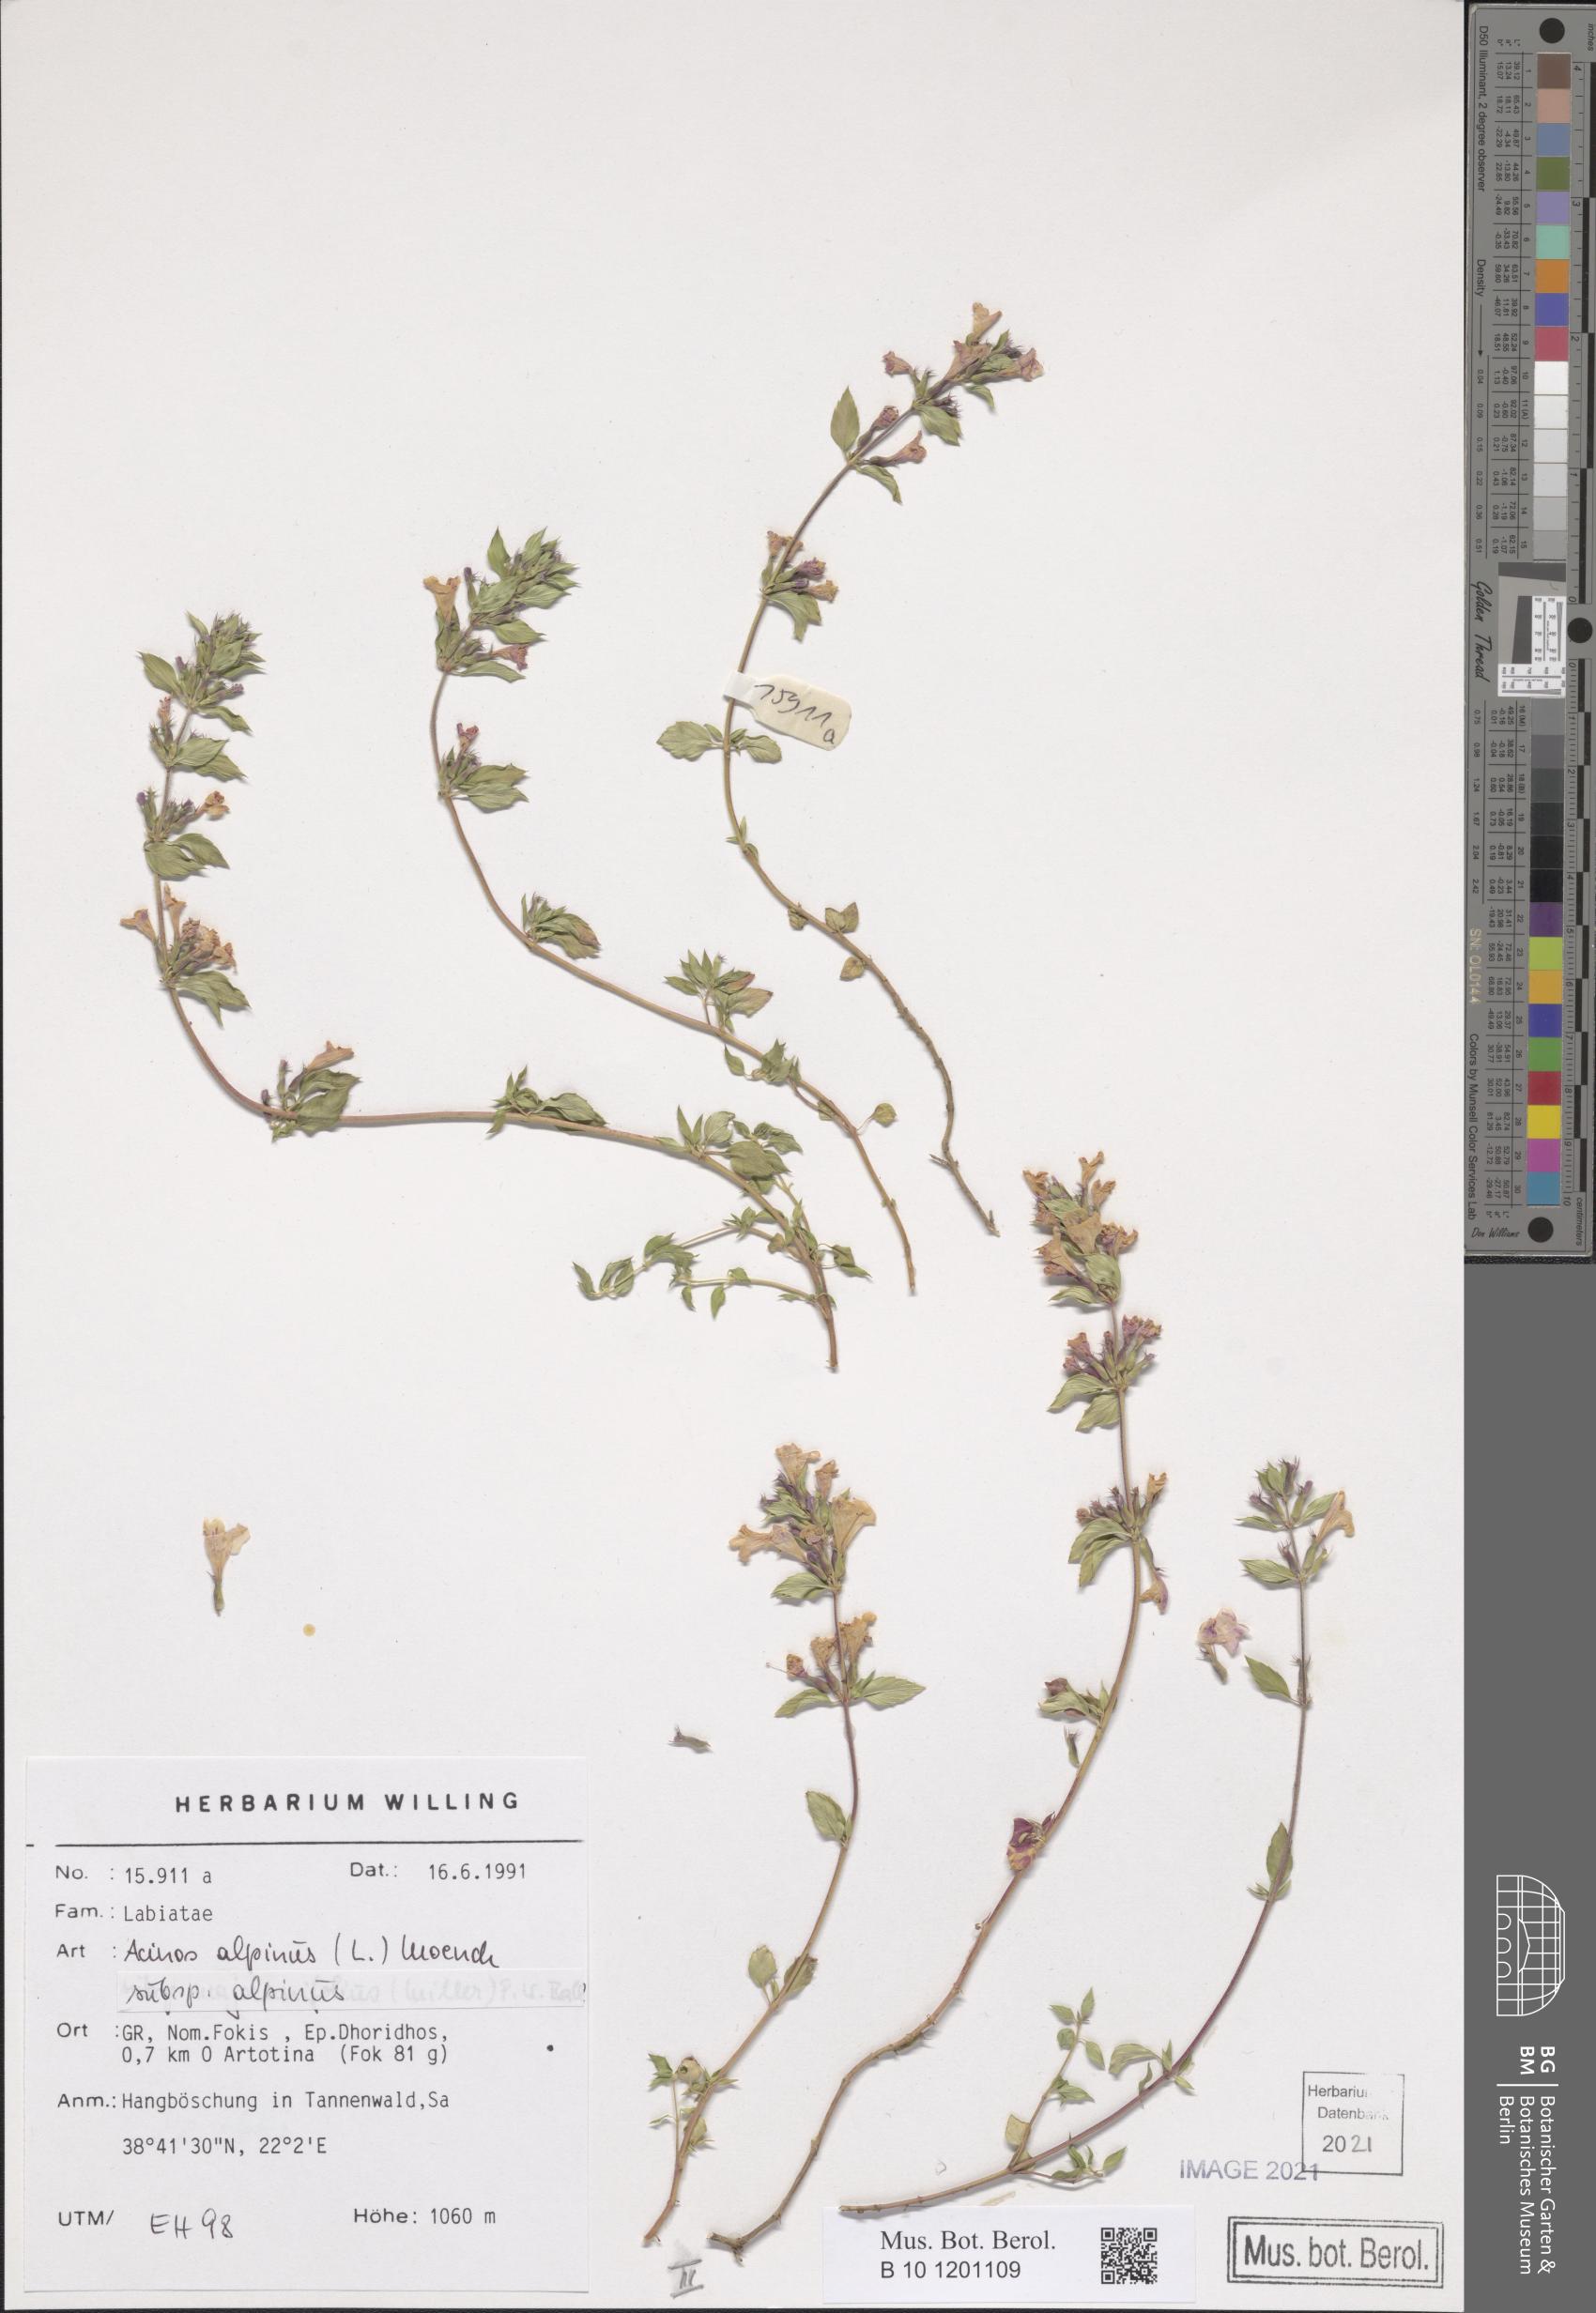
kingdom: Plantae
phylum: Tracheophyta
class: Magnoliopsida
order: Lamiales
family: Lamiaceae
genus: Clinopodium
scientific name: Clinopodium alpinum
